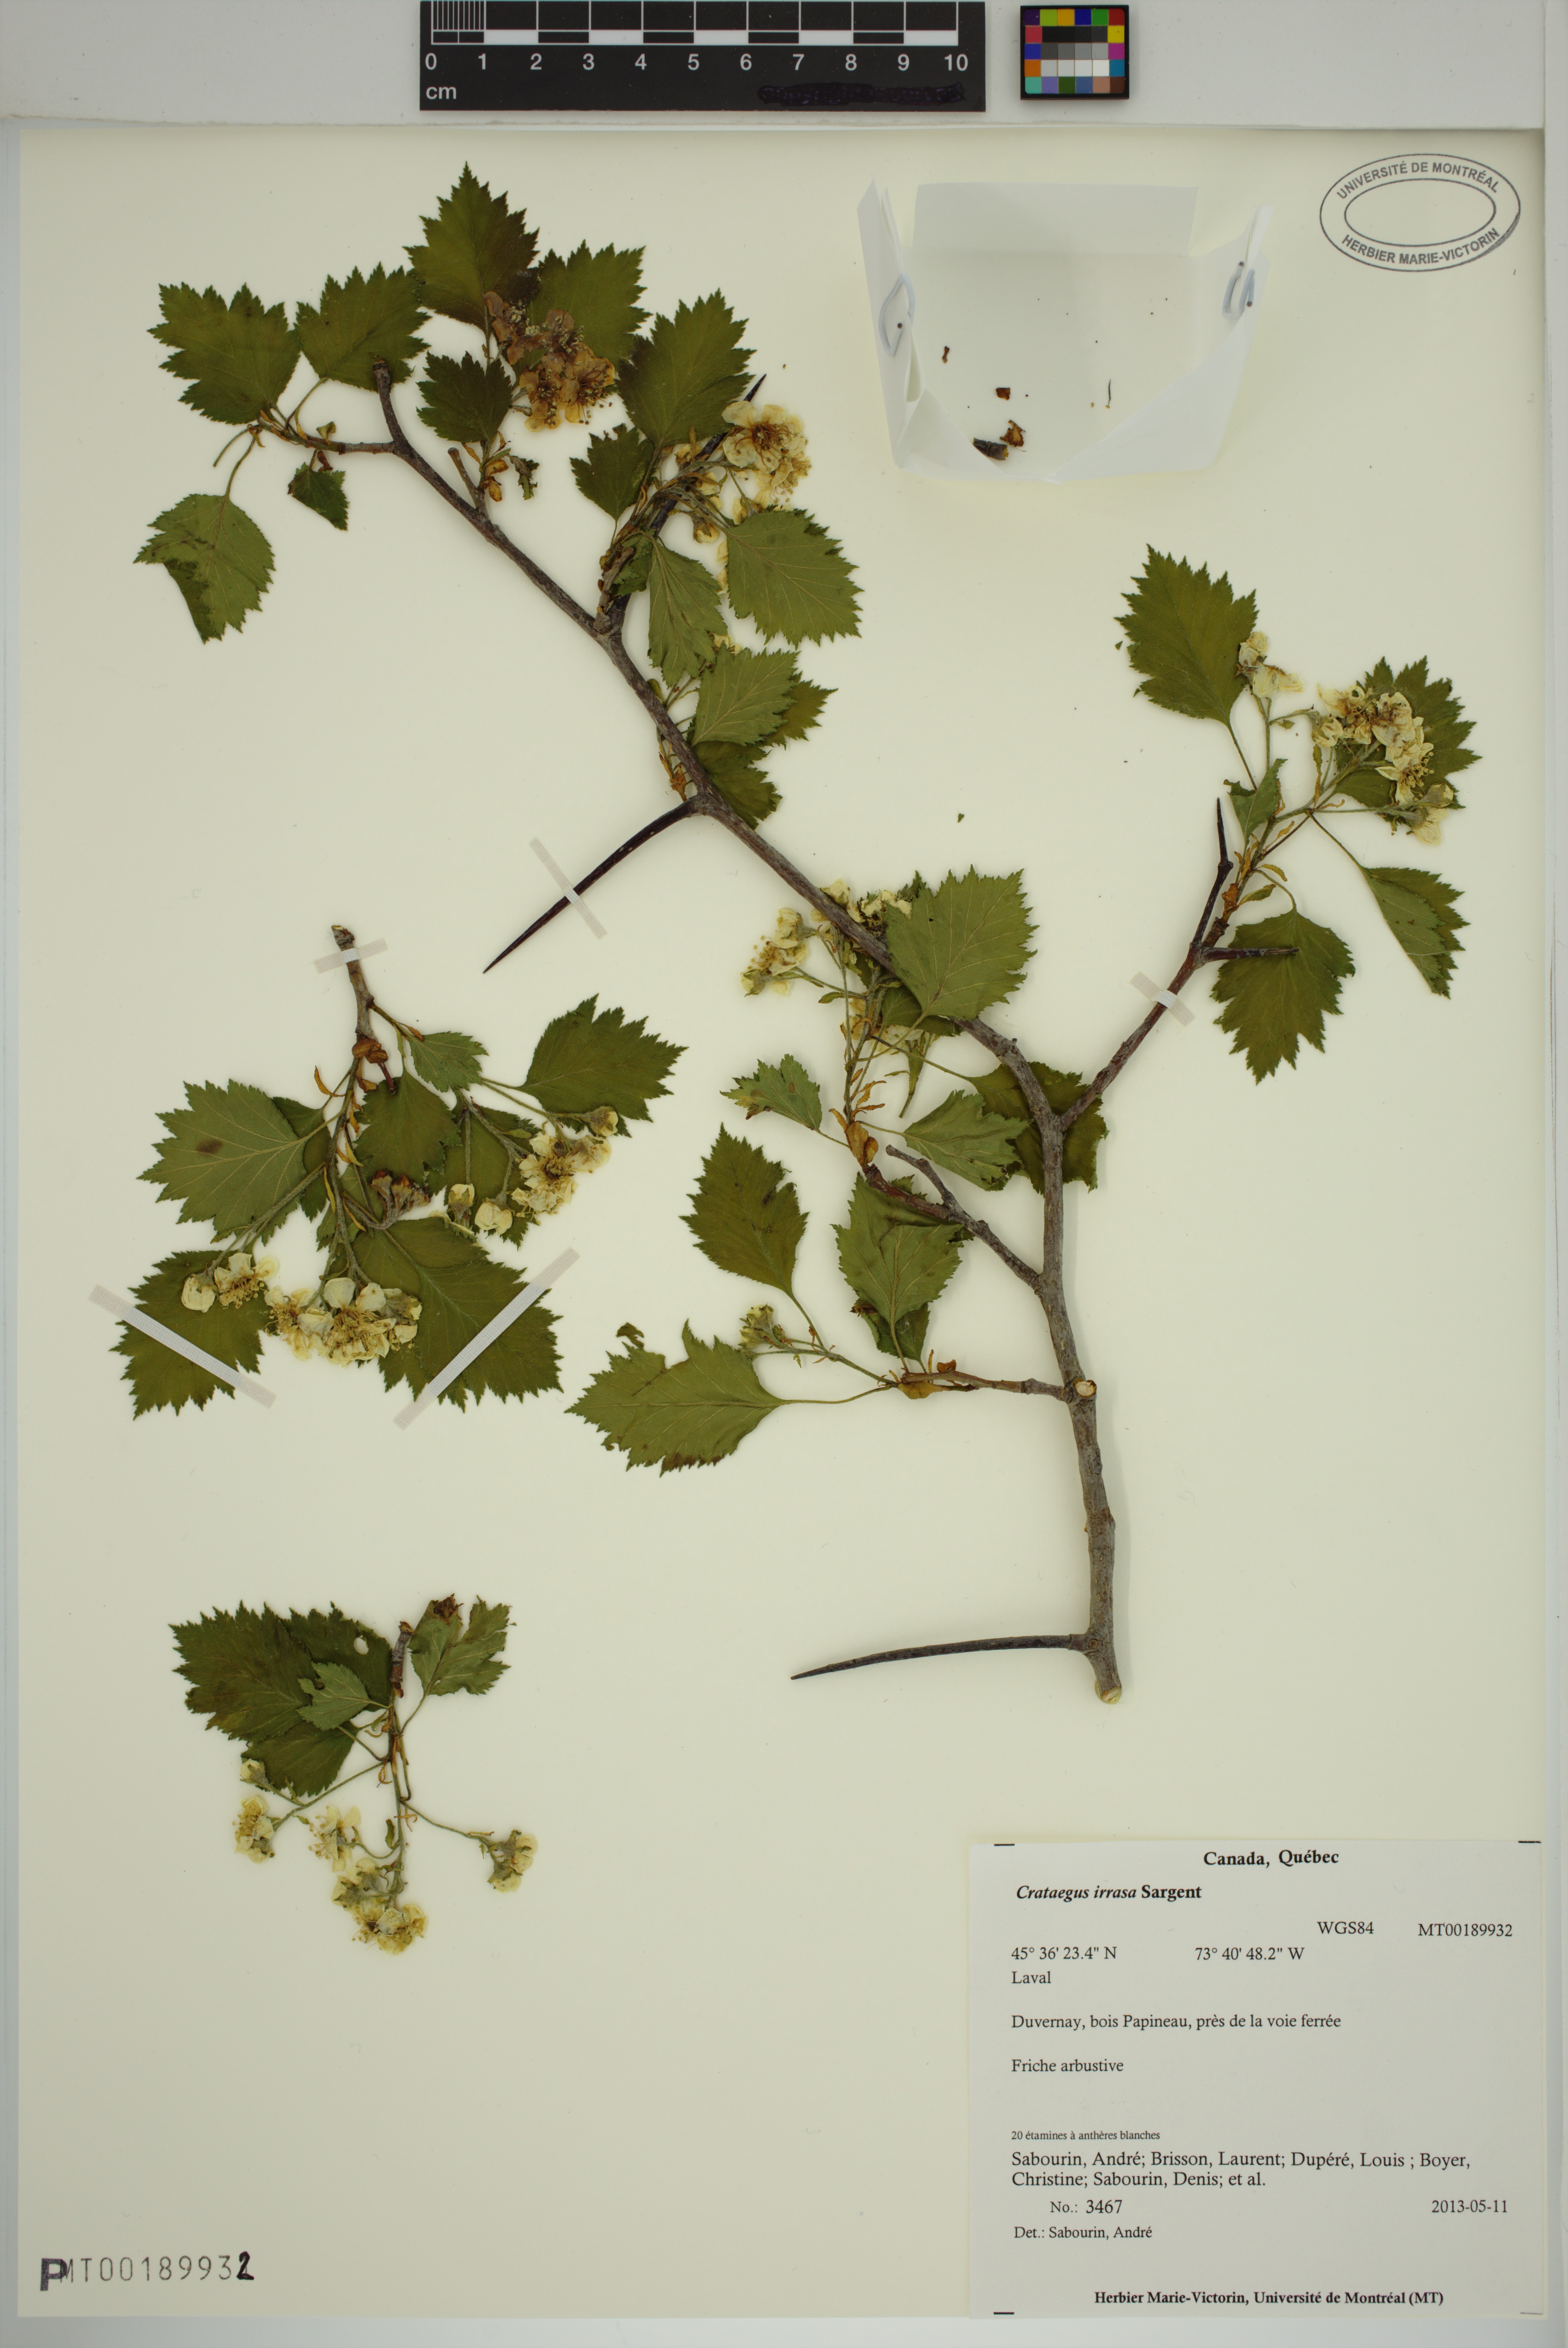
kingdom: Plantae
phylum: Tracheophyta
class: Magnoliopsida
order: Rosales
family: Rosaceae
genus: Crataegus
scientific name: Crataegus irrasa
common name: Unshorn hawthorn
